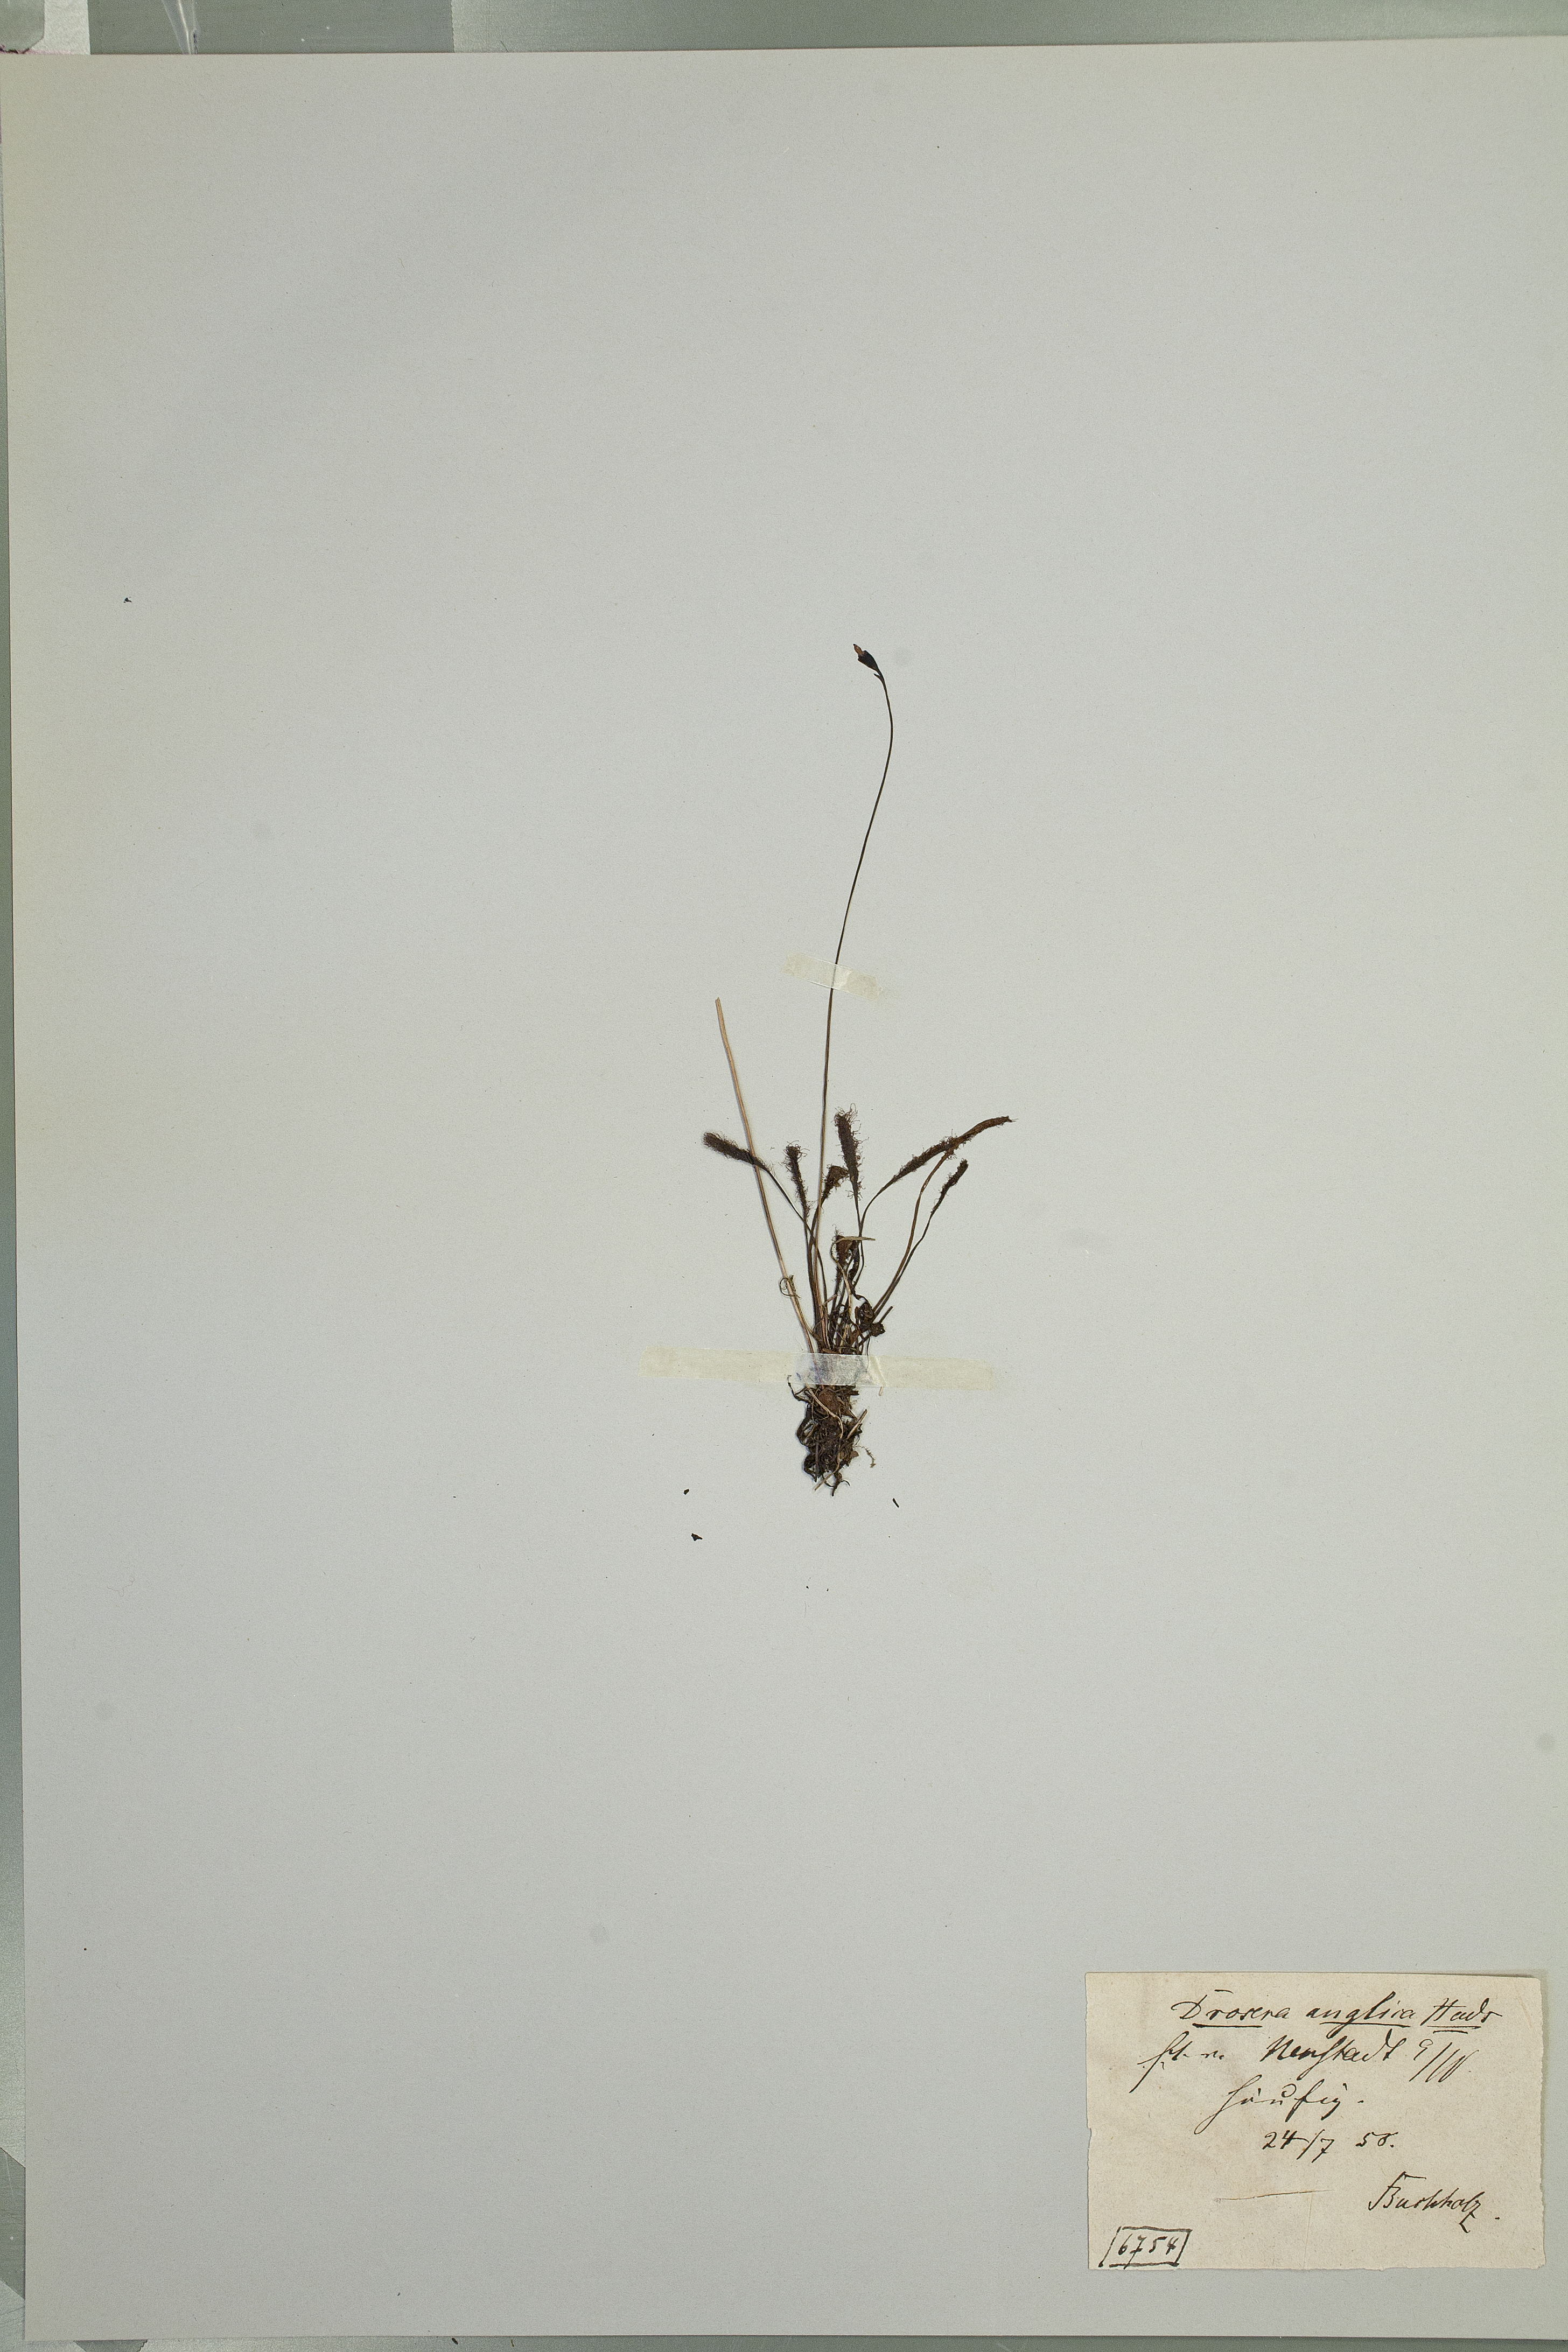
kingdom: Plantae
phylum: Tracheophyta
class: Magnoliopsida
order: Caryophyllales
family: Droseraceae
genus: Drosera
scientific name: Drosera anglica
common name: Great sundew
